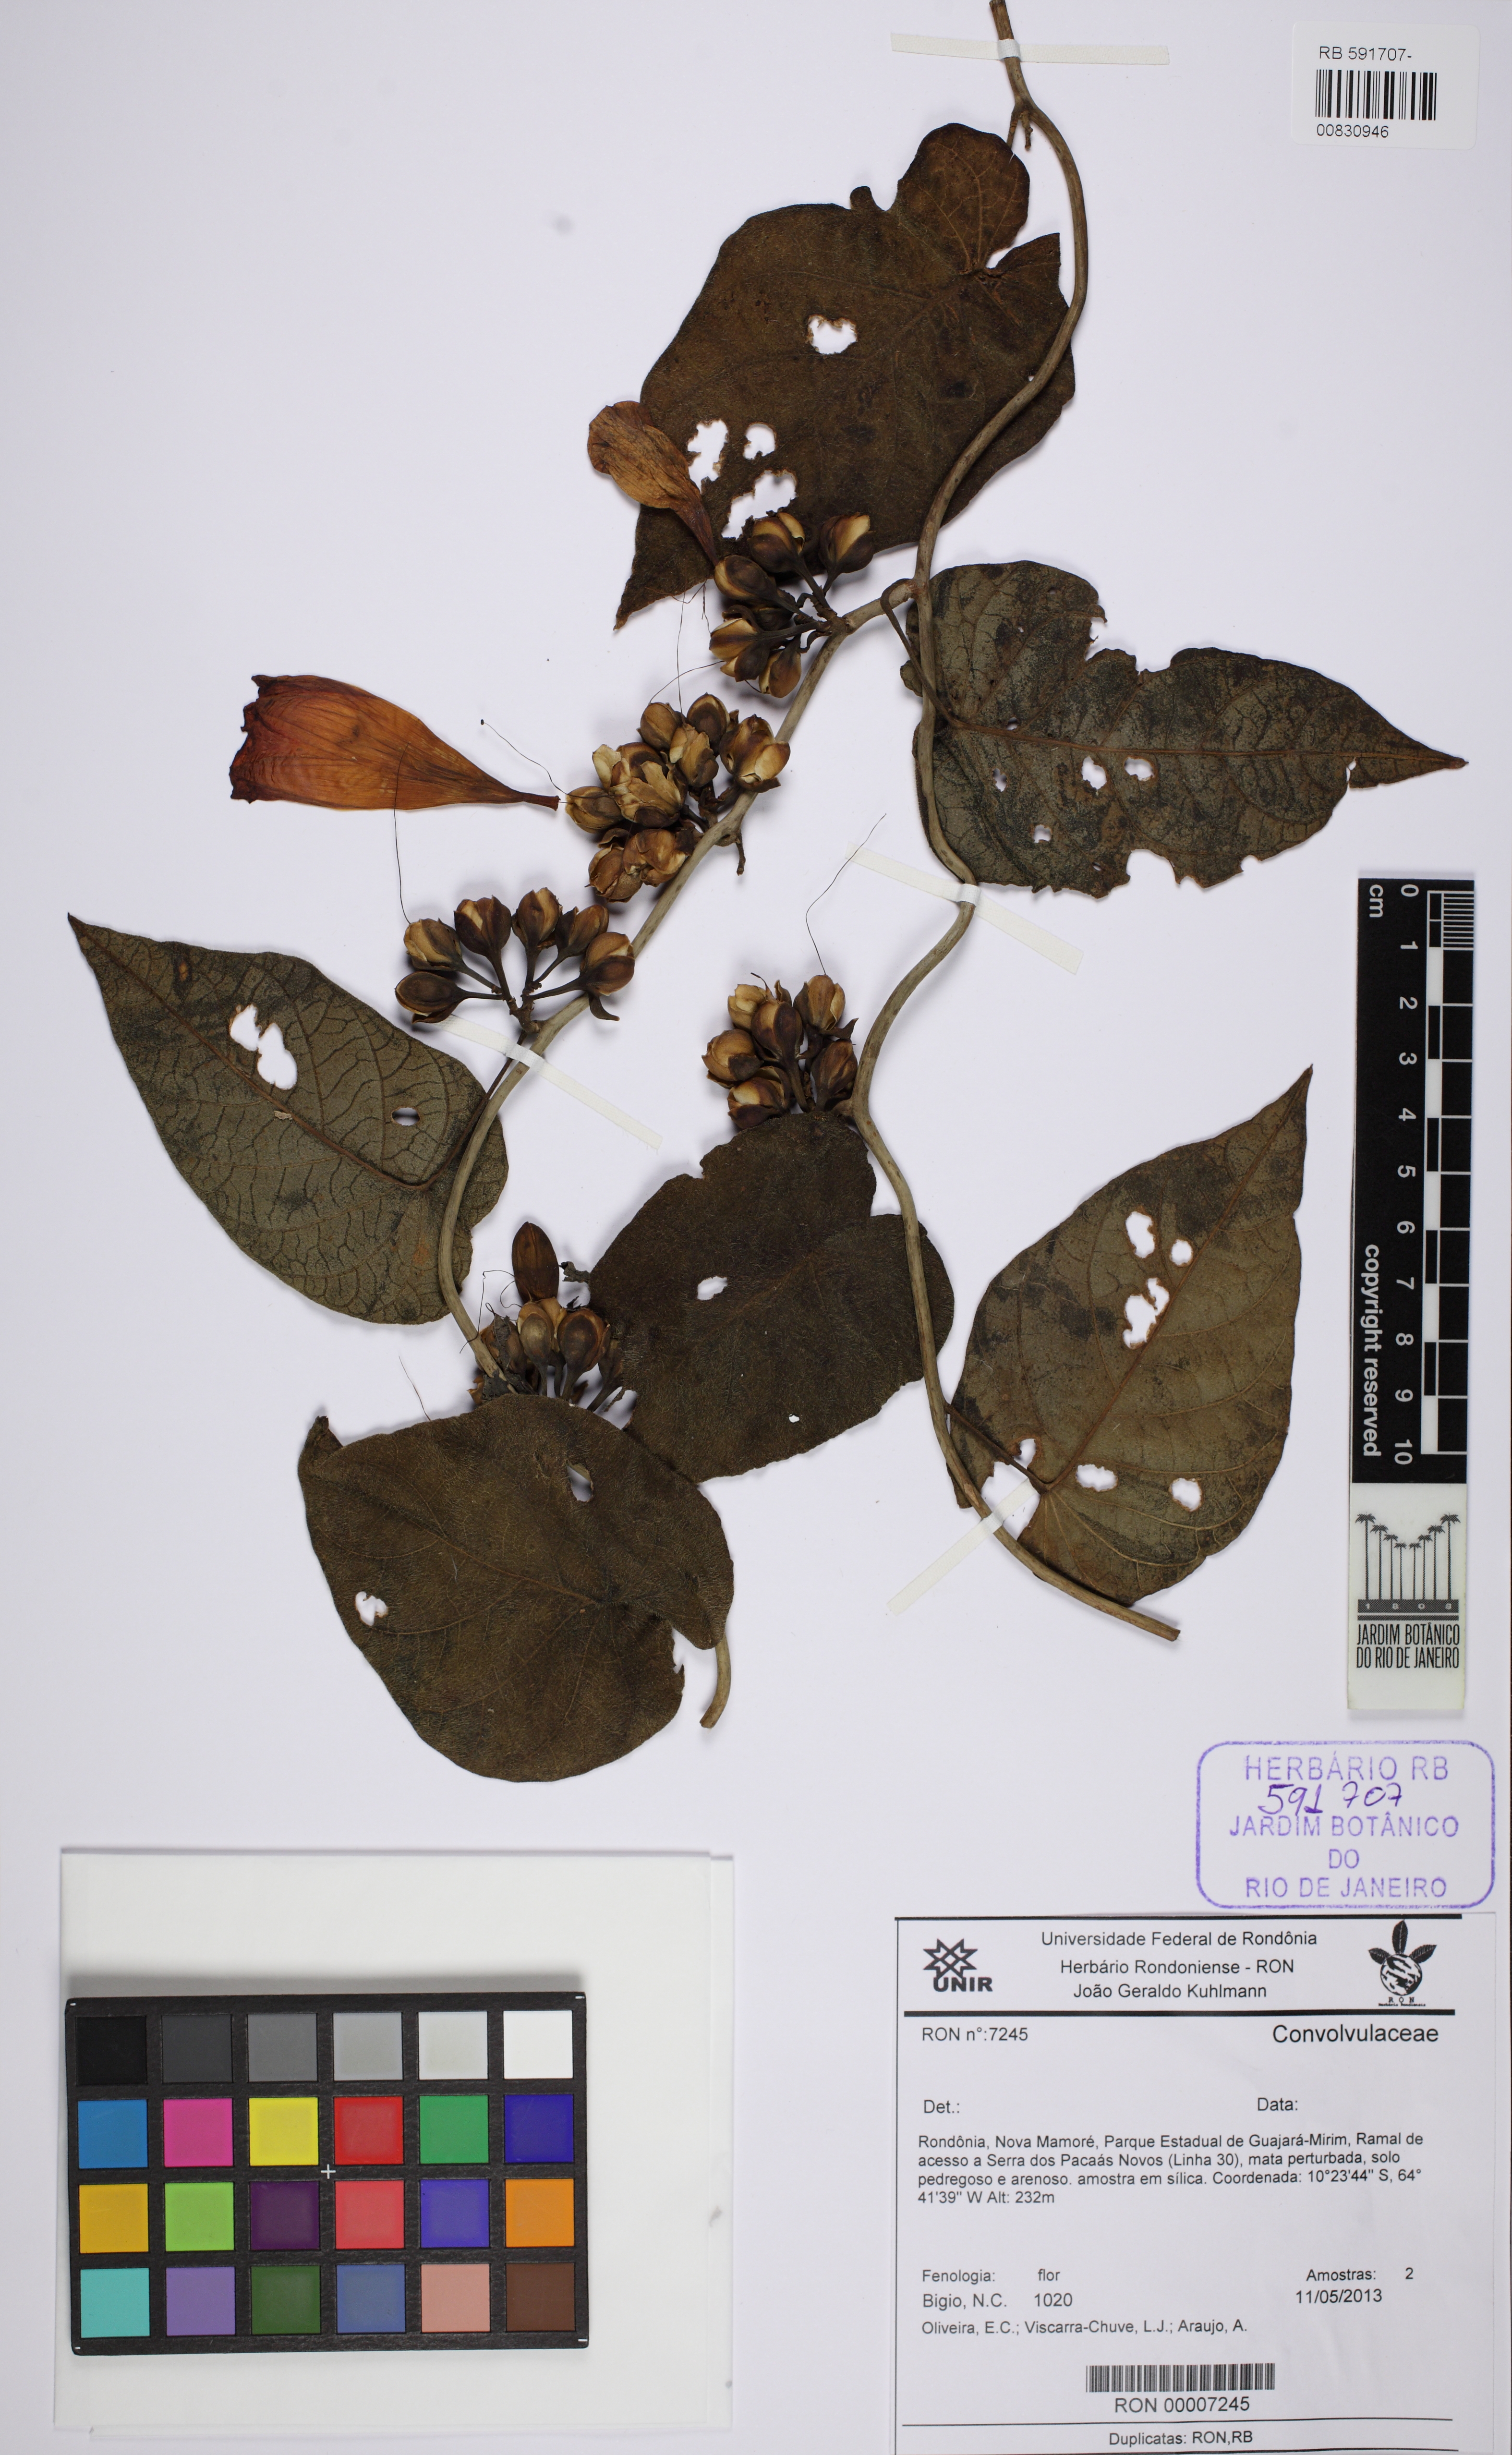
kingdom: Plantae
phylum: Tracheophyta
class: Magnoliopsida
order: Solanales
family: Convolvulaceae
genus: Ipomoea
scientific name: Ipomoea goyazensis
